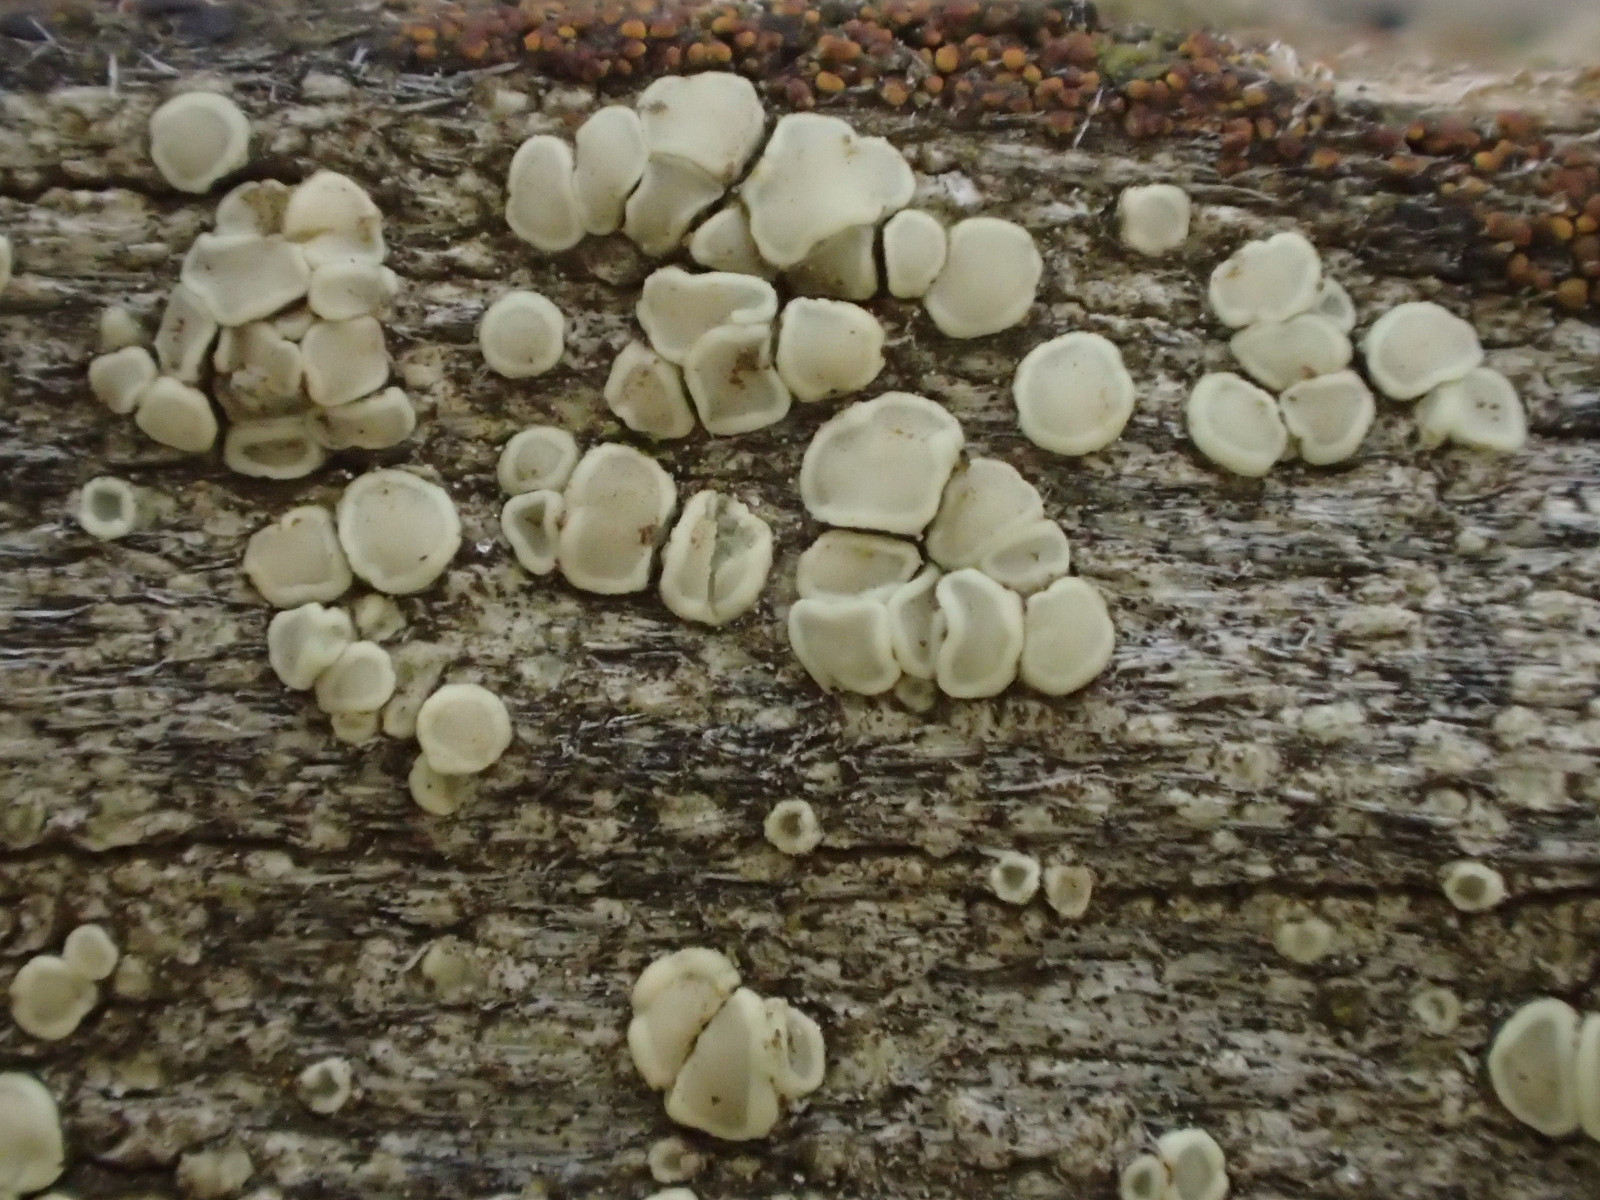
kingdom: Fungi
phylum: Ascomycota
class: Lecanoromycetes
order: Lecanorales
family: Lecanoraceae
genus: Lecanora
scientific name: Lecanora symmicta
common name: kvist-kantskivelav
